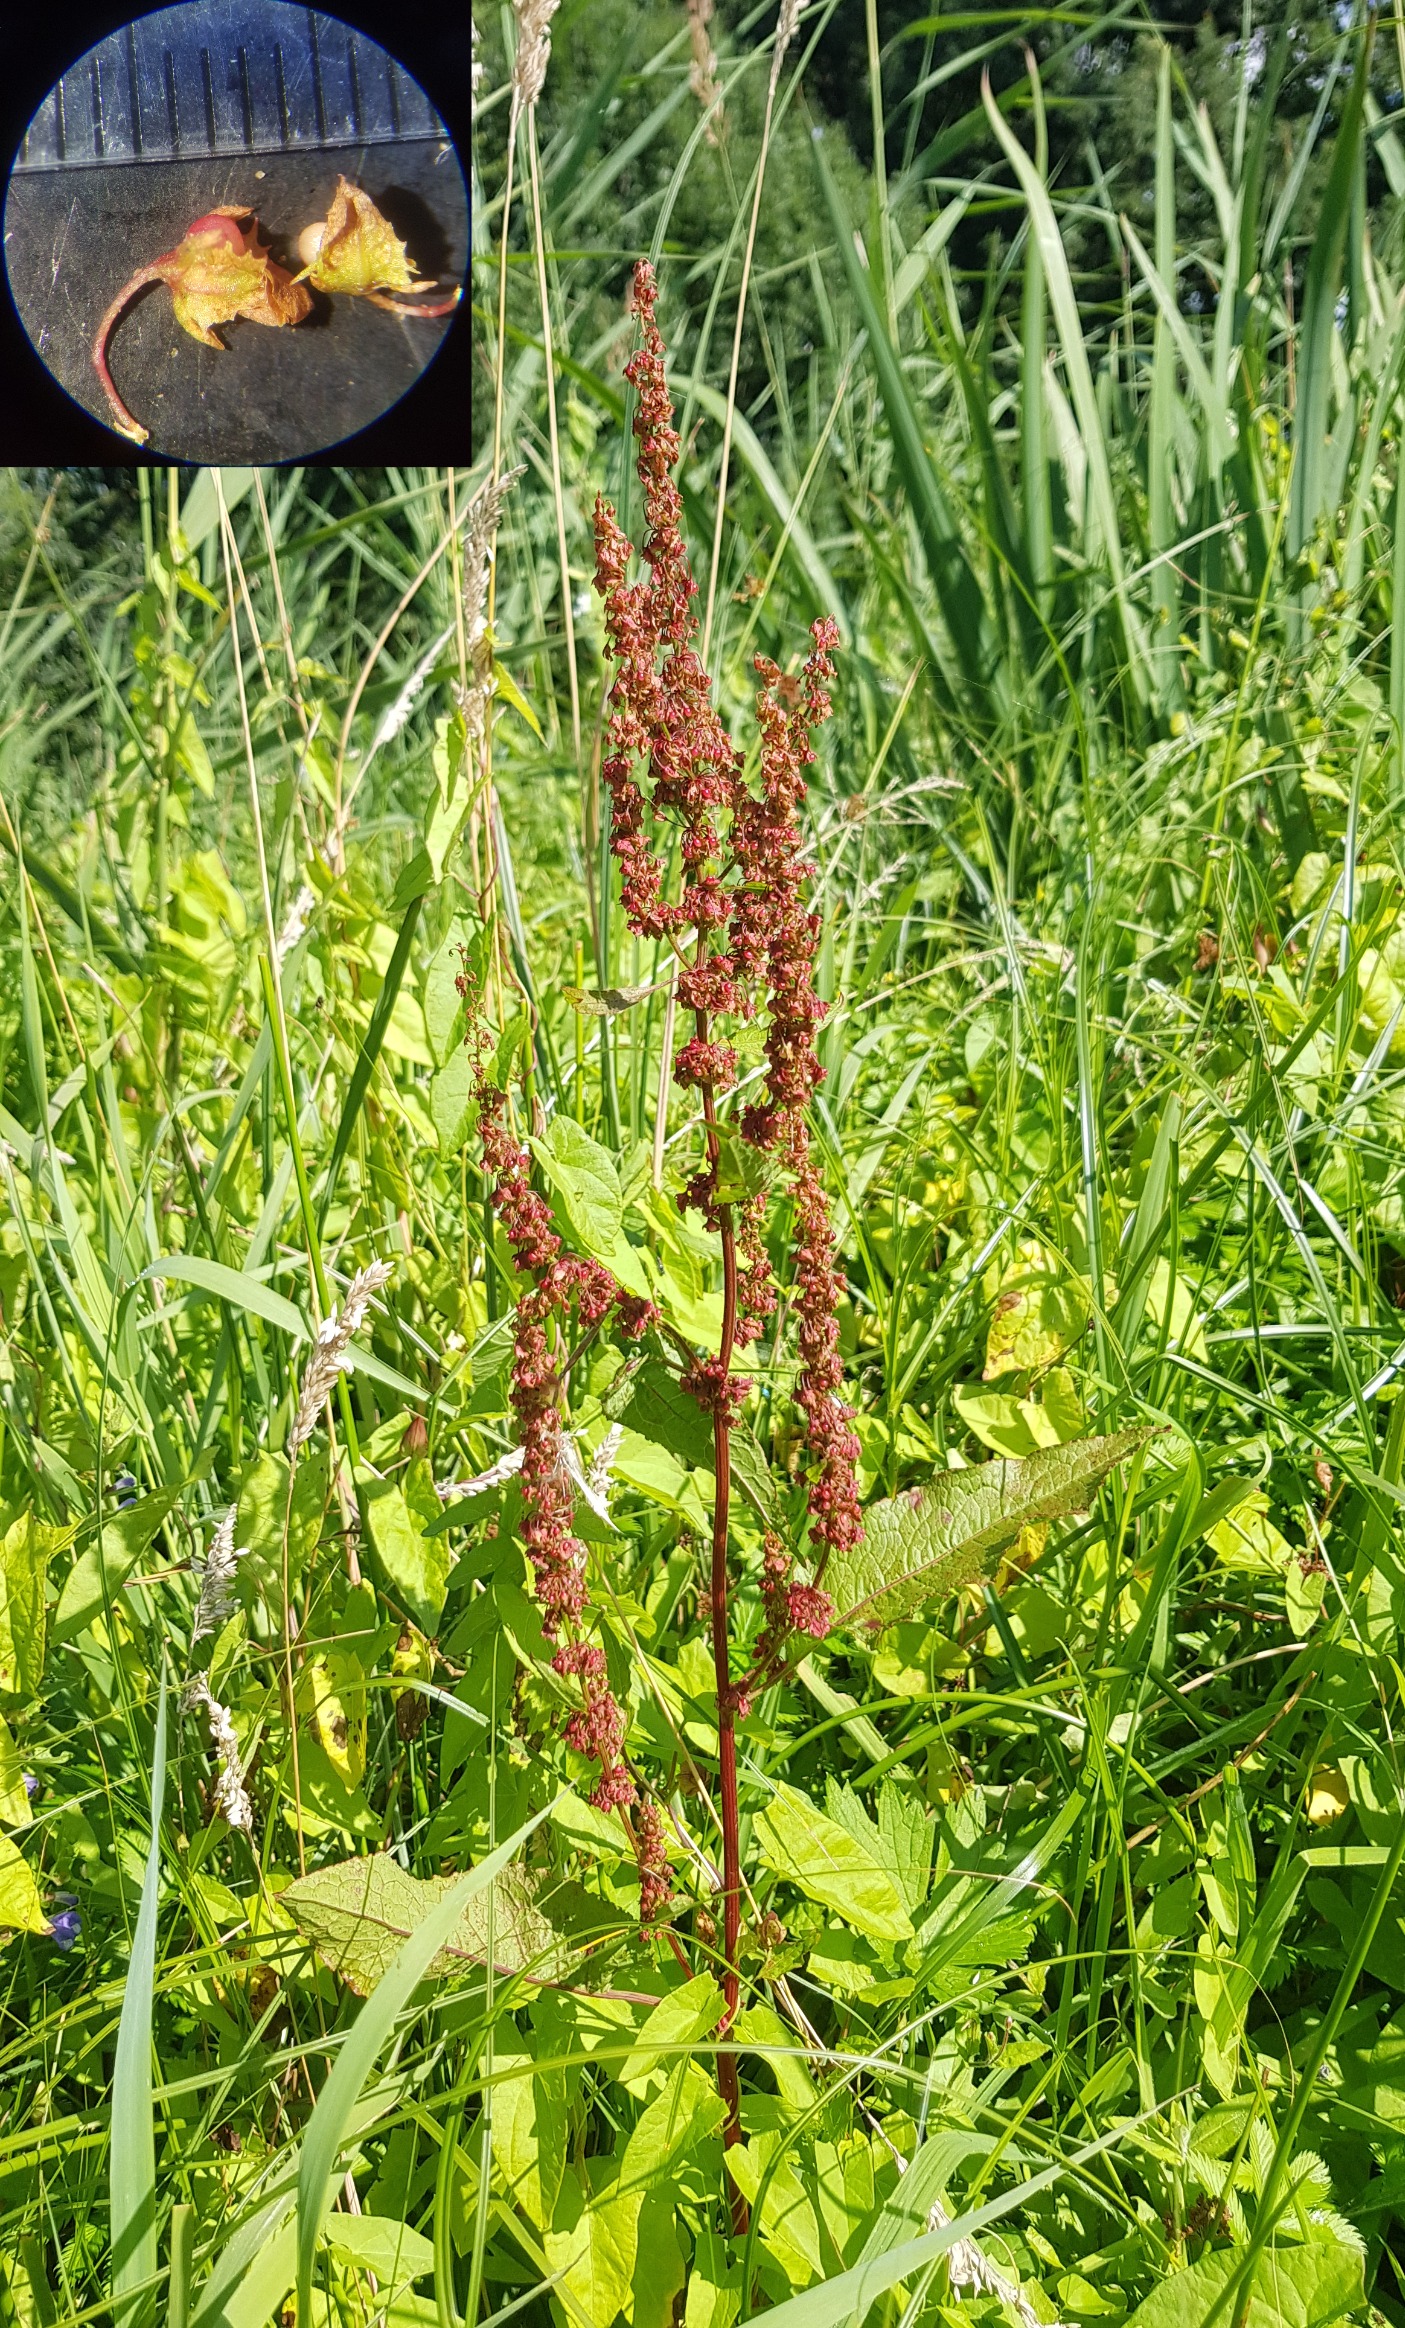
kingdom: Plantae
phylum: Tracheophyta
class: Magnoliopsida
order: Caryophyllales
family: Polygonaceae
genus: Rumex
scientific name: Rumex obtusifolius
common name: Butbladet skræppe
